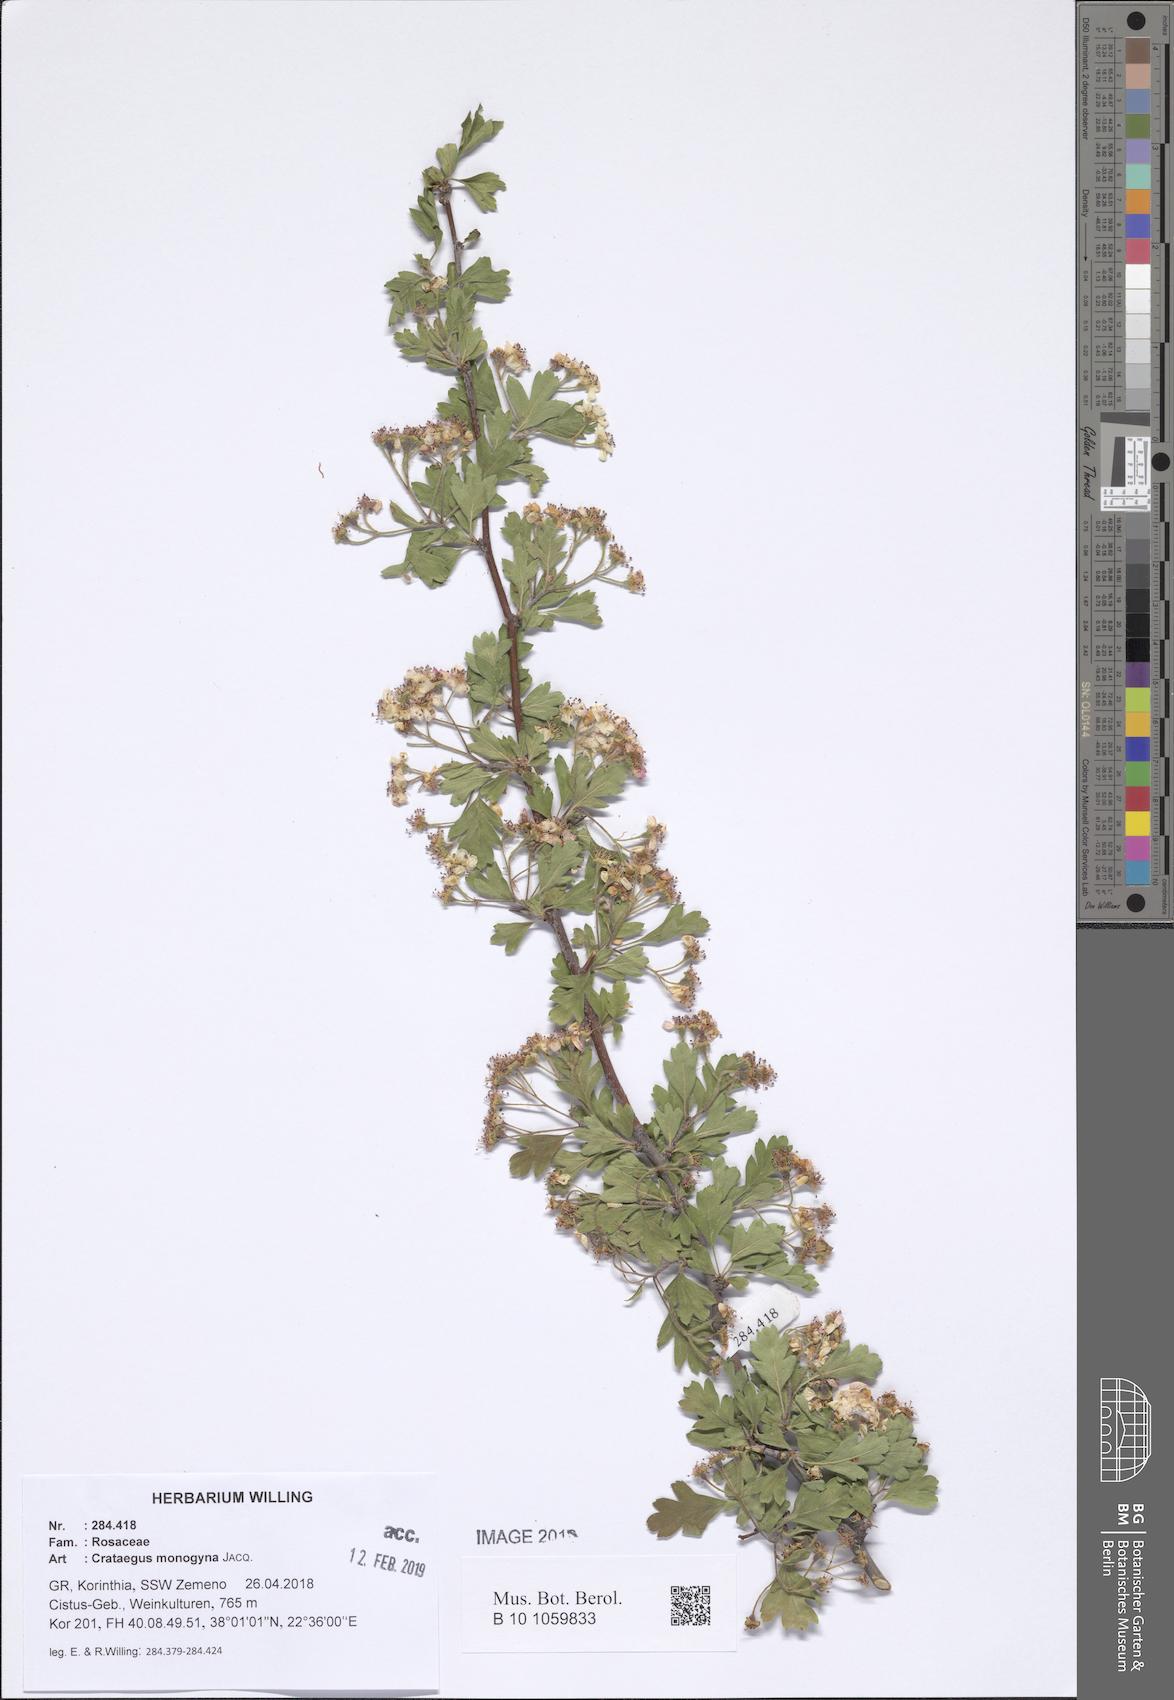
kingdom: Plantae
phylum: Tracheophyta
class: Magnoliopsida
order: Rosales
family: Rosaceae
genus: Crataegus
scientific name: Crataegus monogyna
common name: Hawthorn
